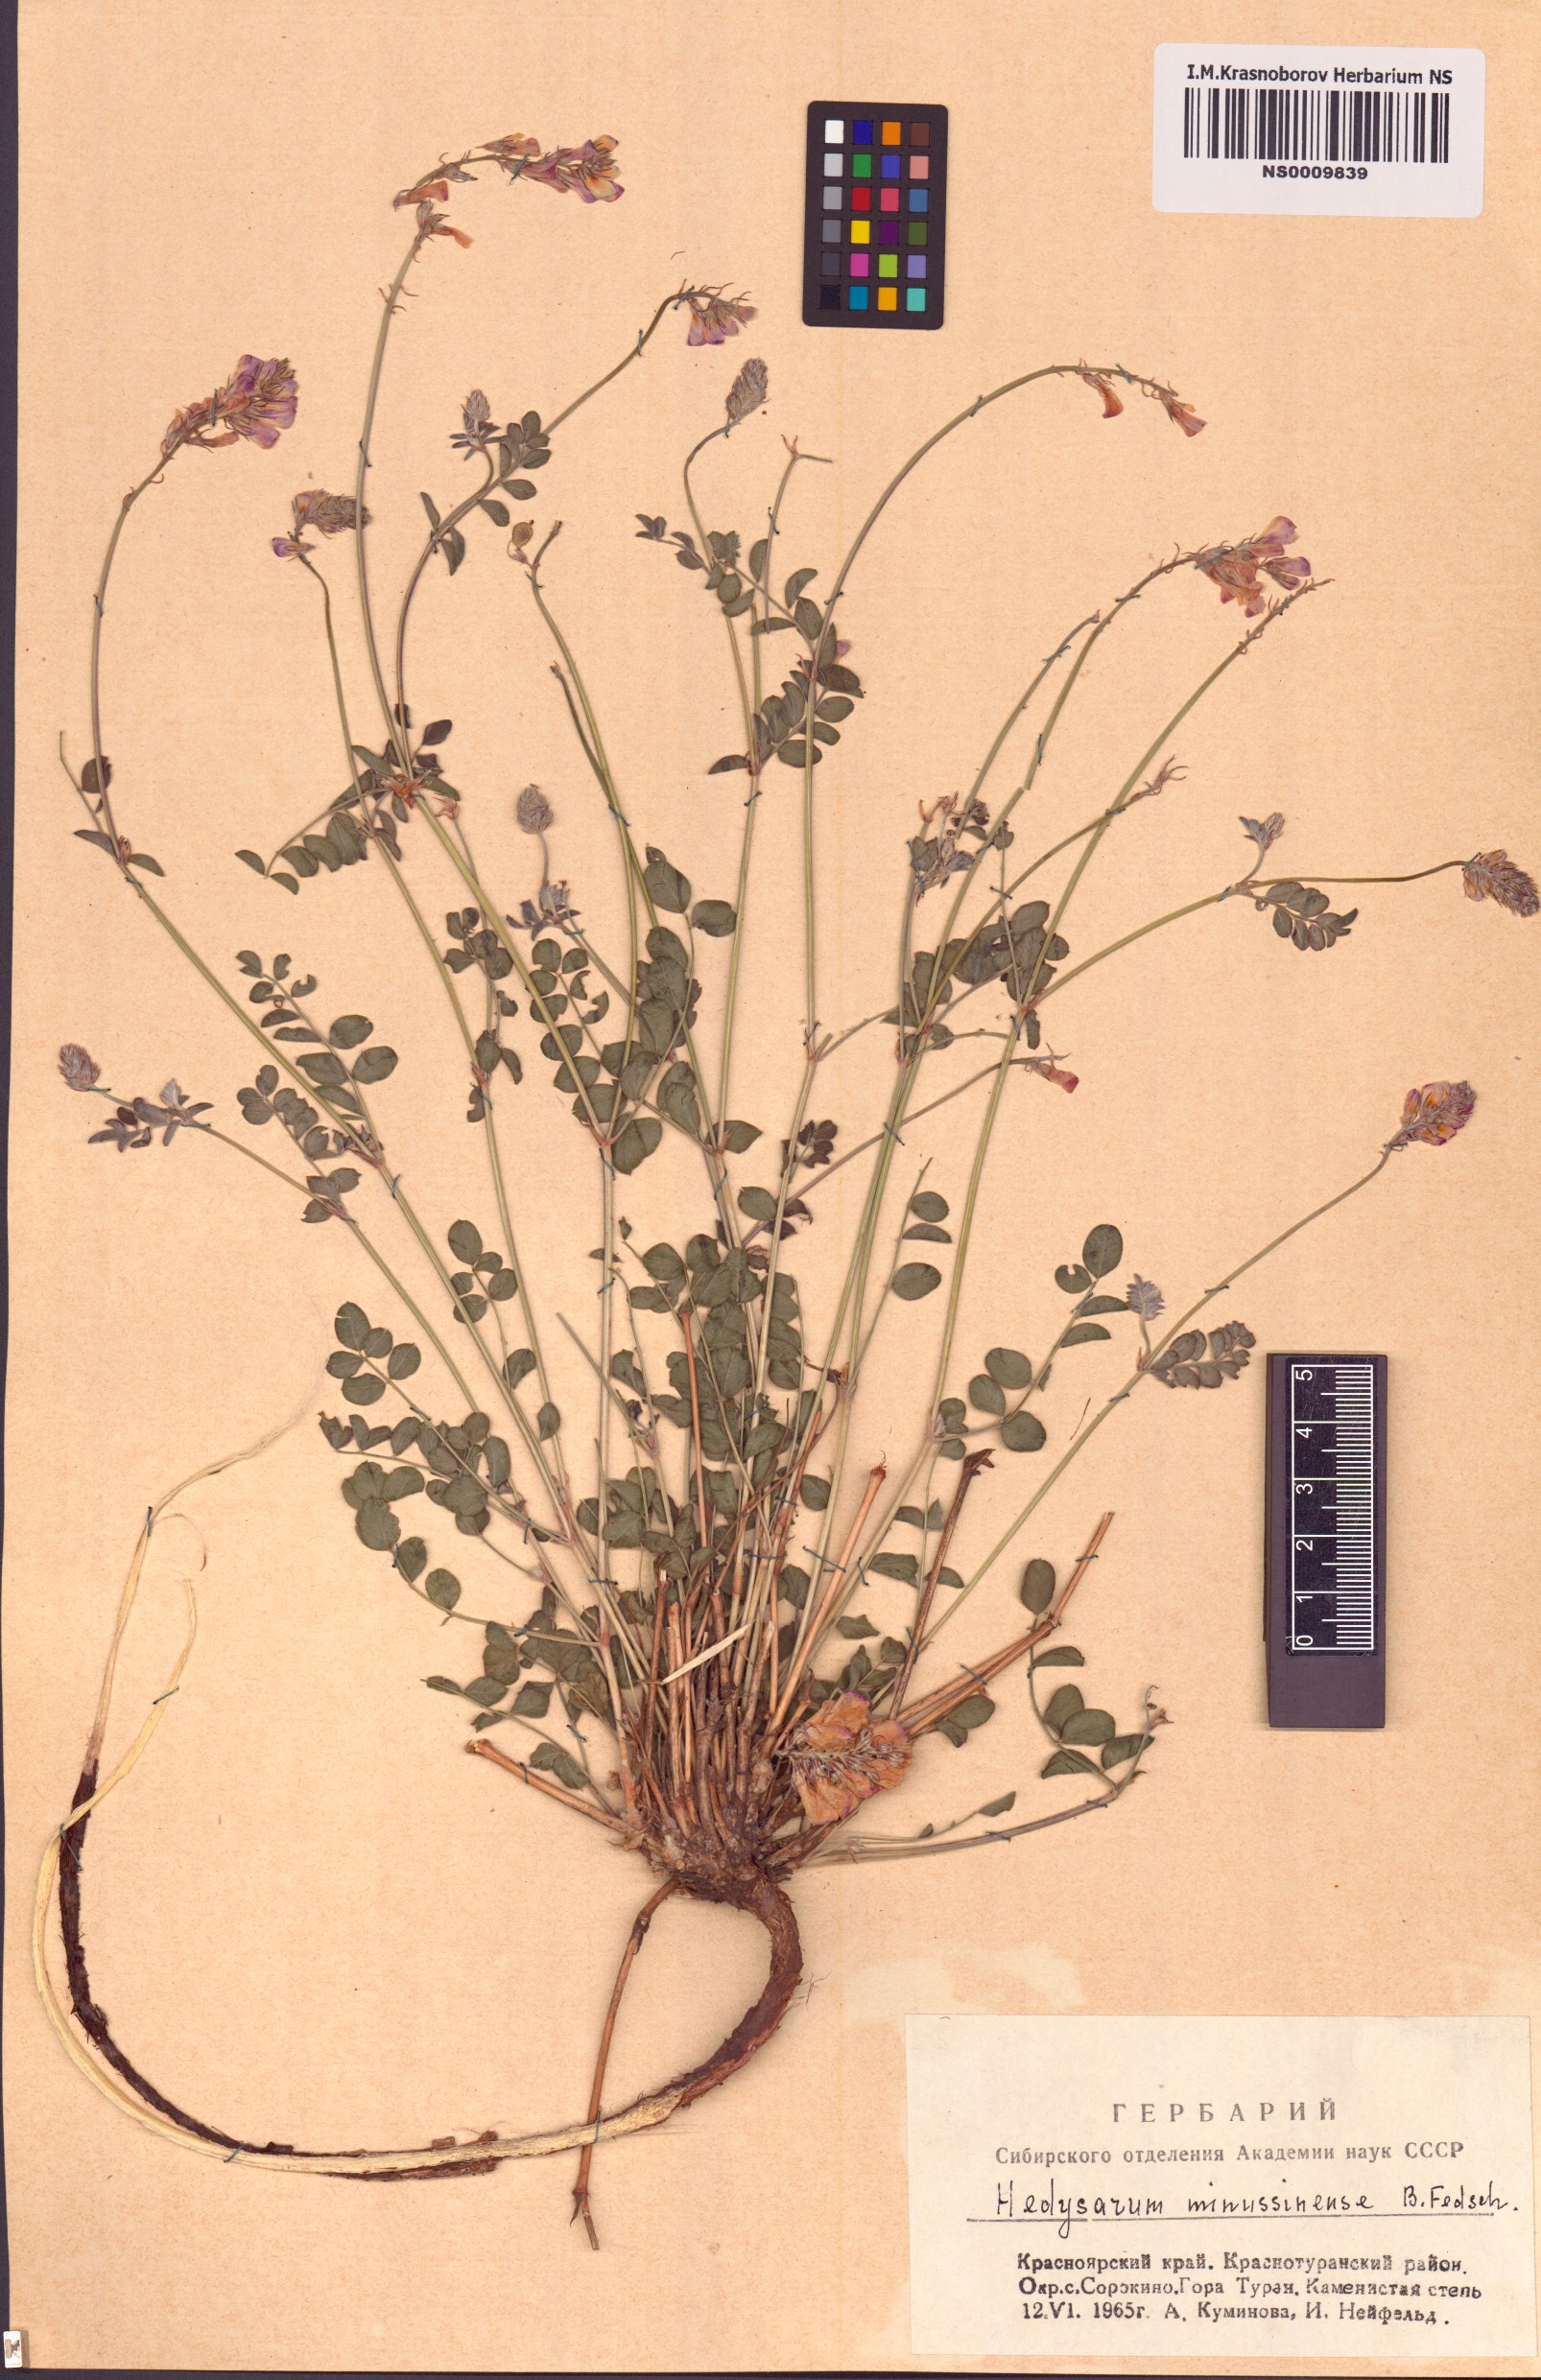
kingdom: Plantae
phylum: Tracheophyta
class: Magnoliopsida
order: Fabales
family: Fabaceae
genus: Hedysarum
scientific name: Hedysarum minussinense
